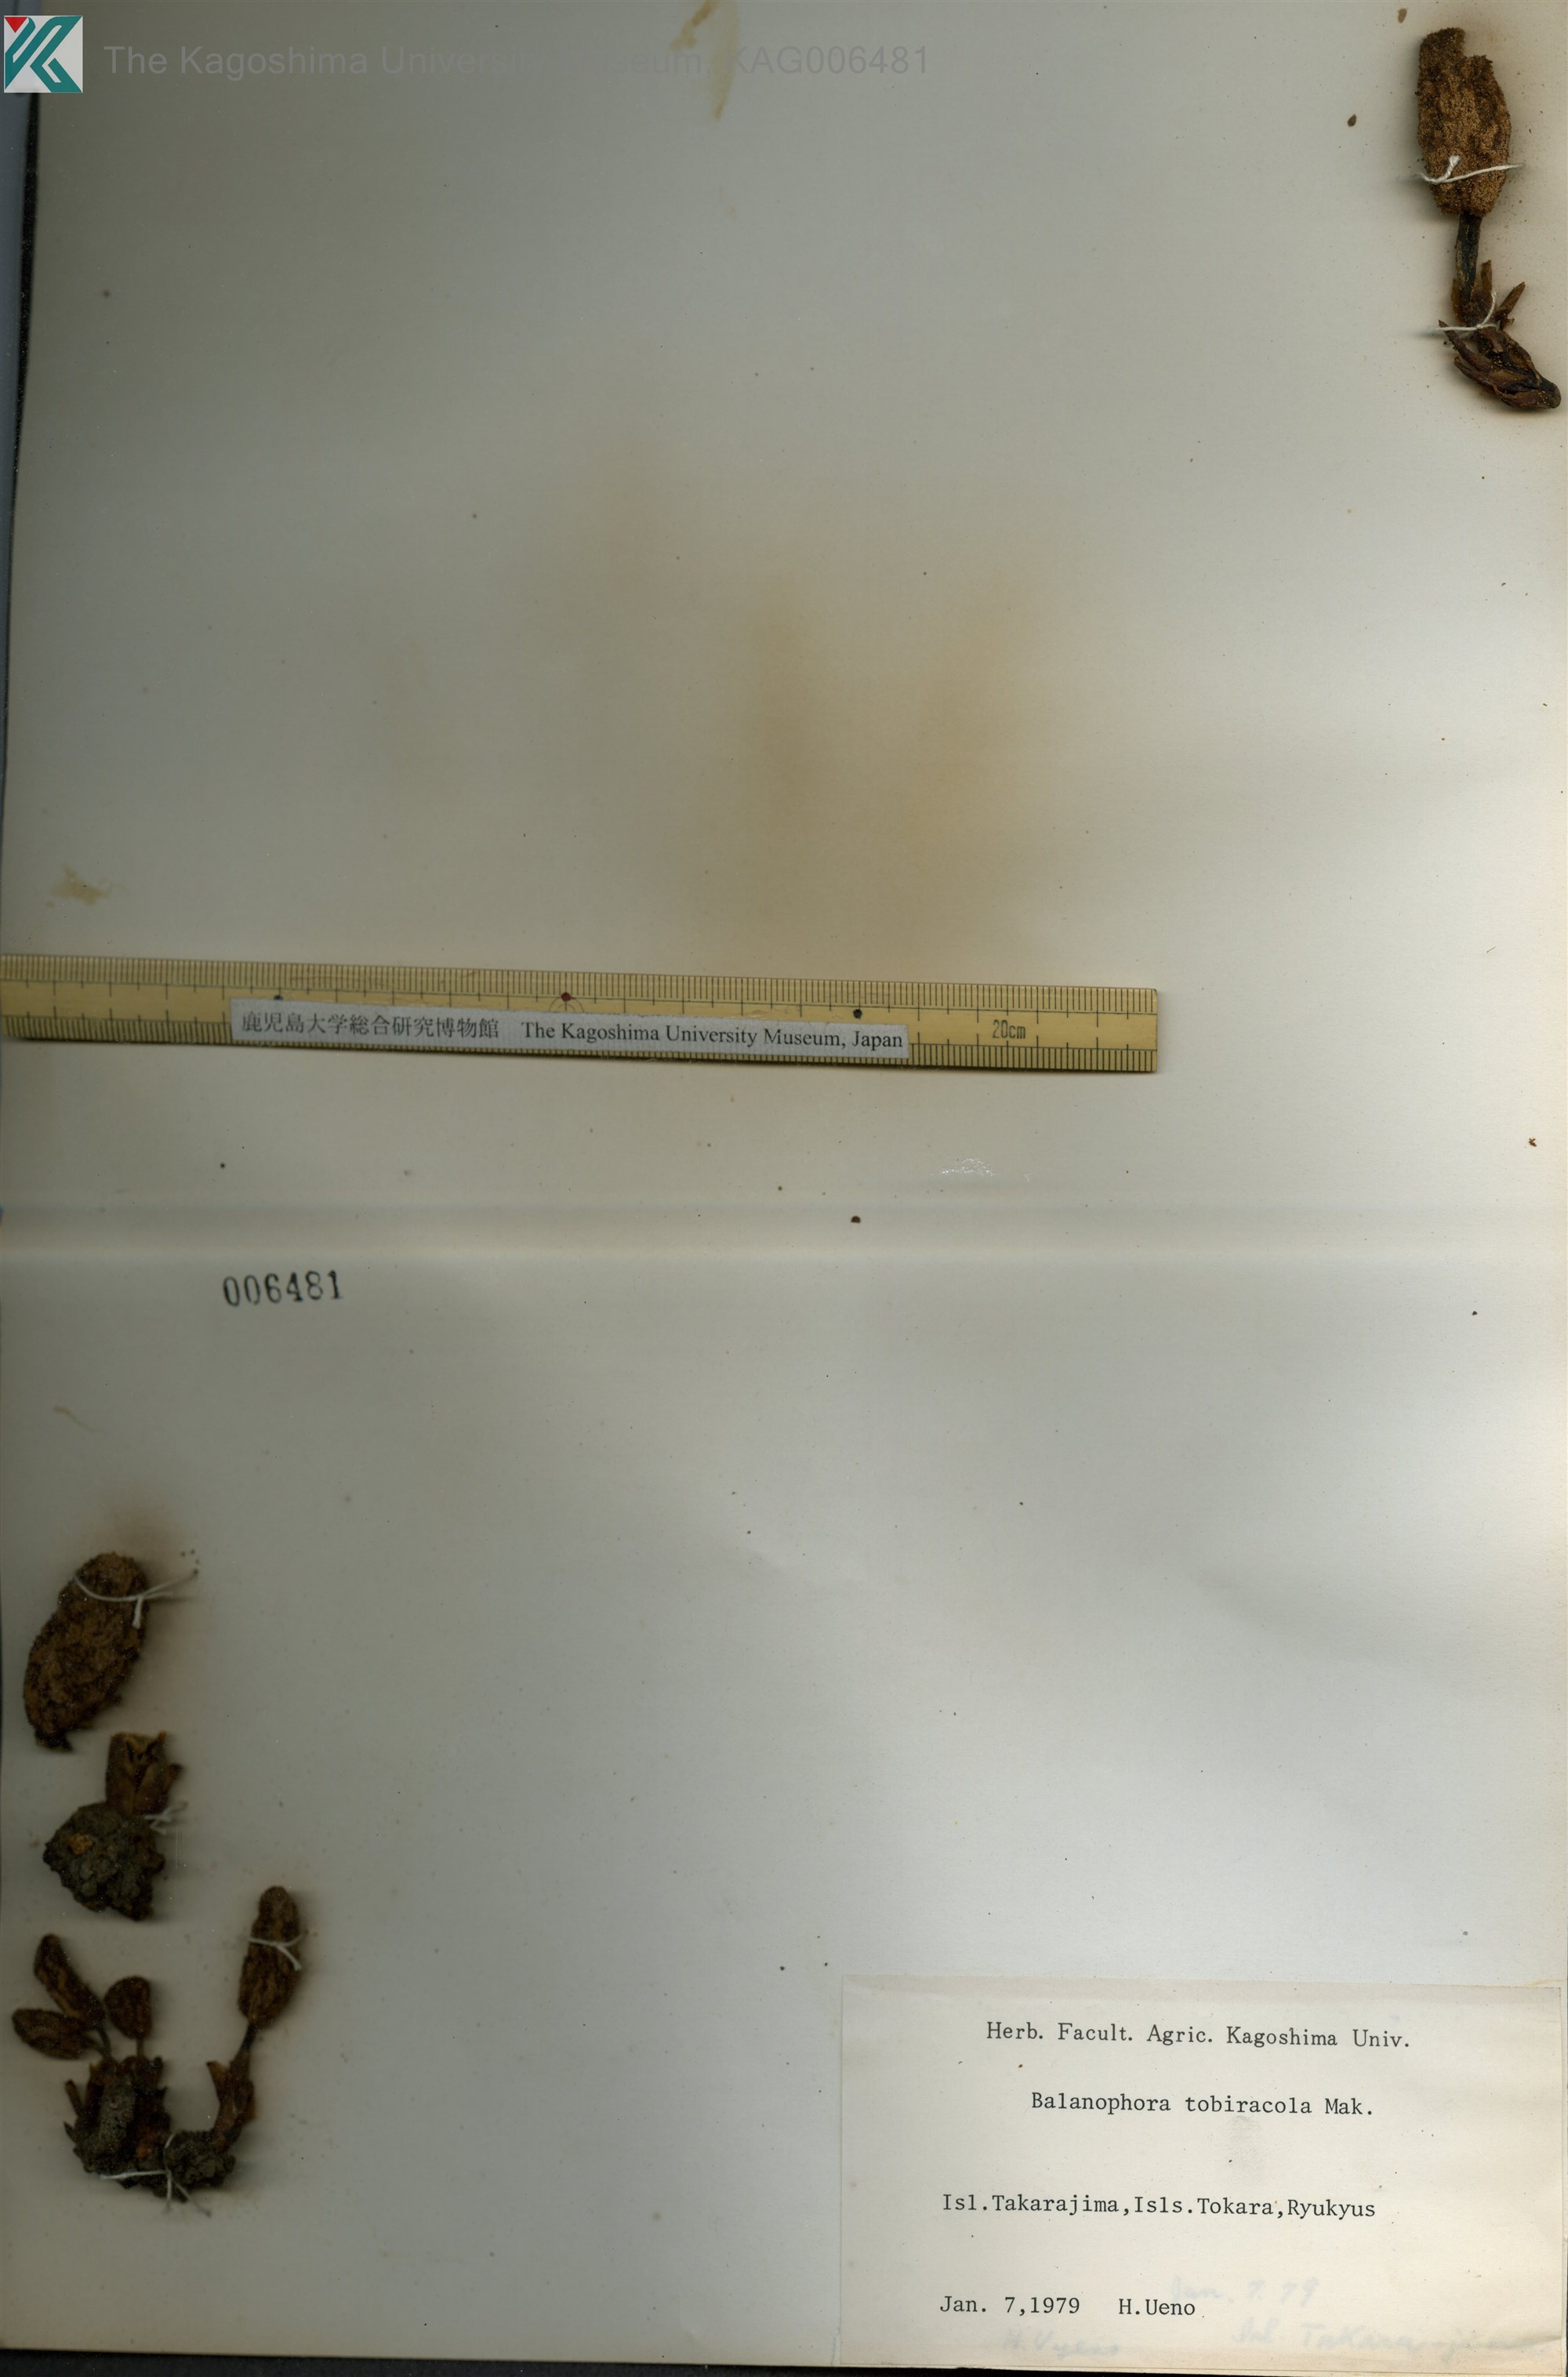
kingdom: Plantae
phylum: Tracheophyta
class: Magnoliopsida
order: Santalales
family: Balanophoraceae
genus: Balanophora
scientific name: Balanophora tobiracola
